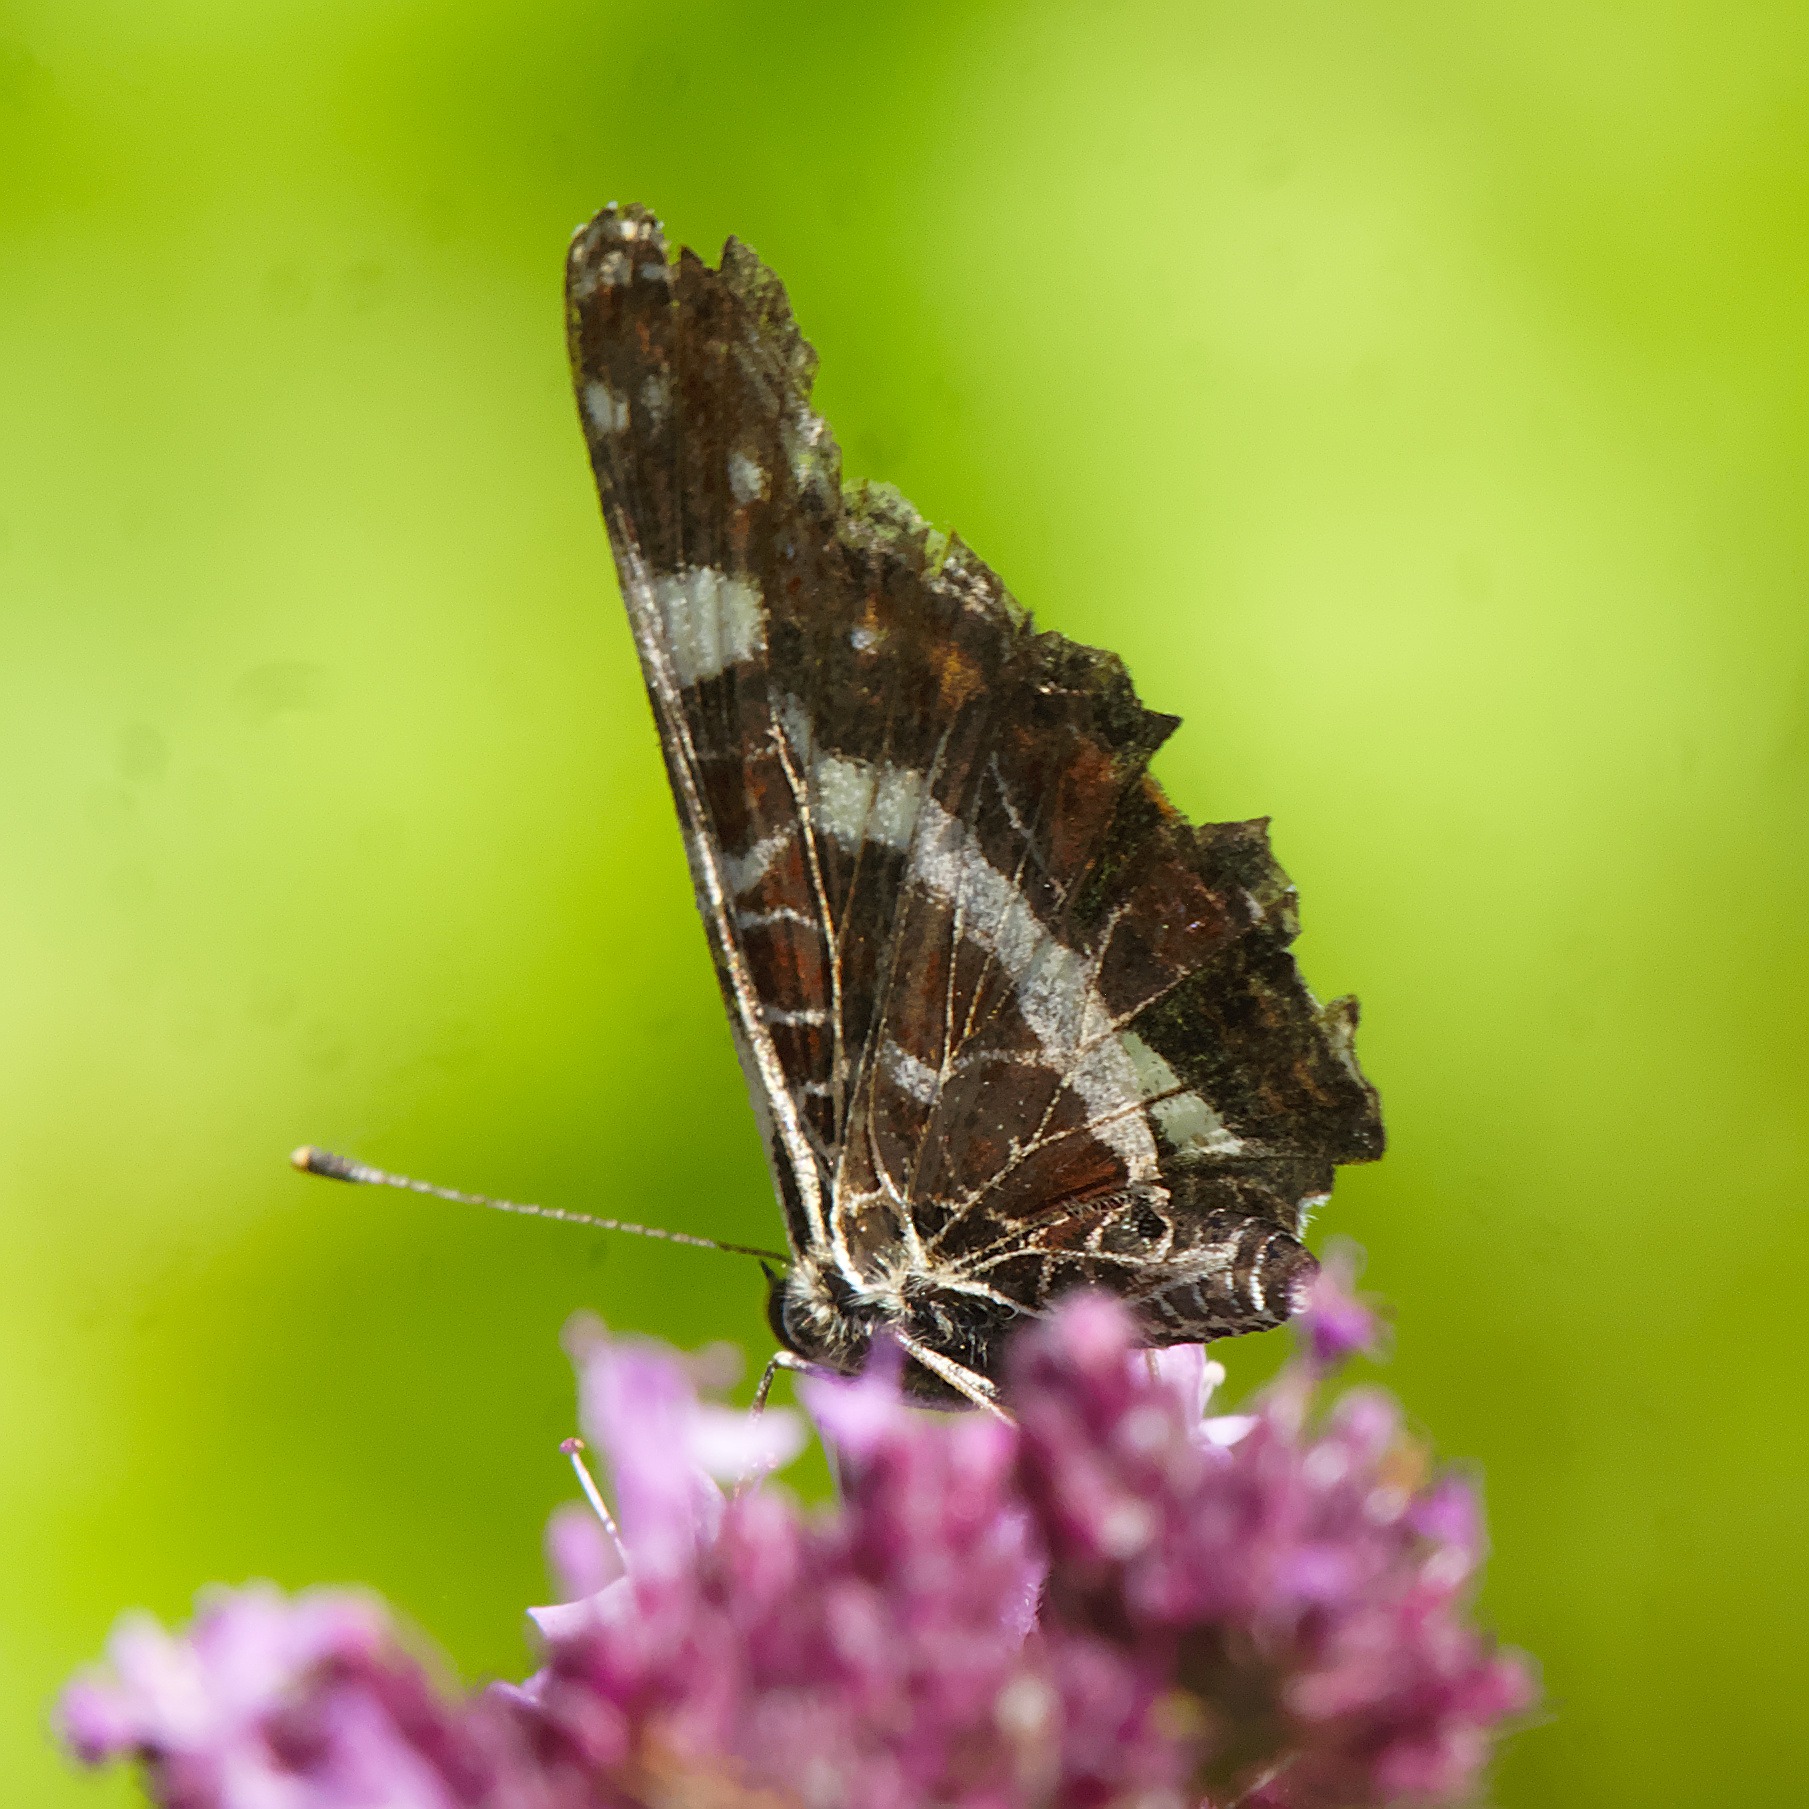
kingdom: Animalia
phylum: Arthropoda
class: Insecta
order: Lepidoptera
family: Nymphalidae
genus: Araschnia
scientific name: Araschnia levana
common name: Nældesommerfugl
